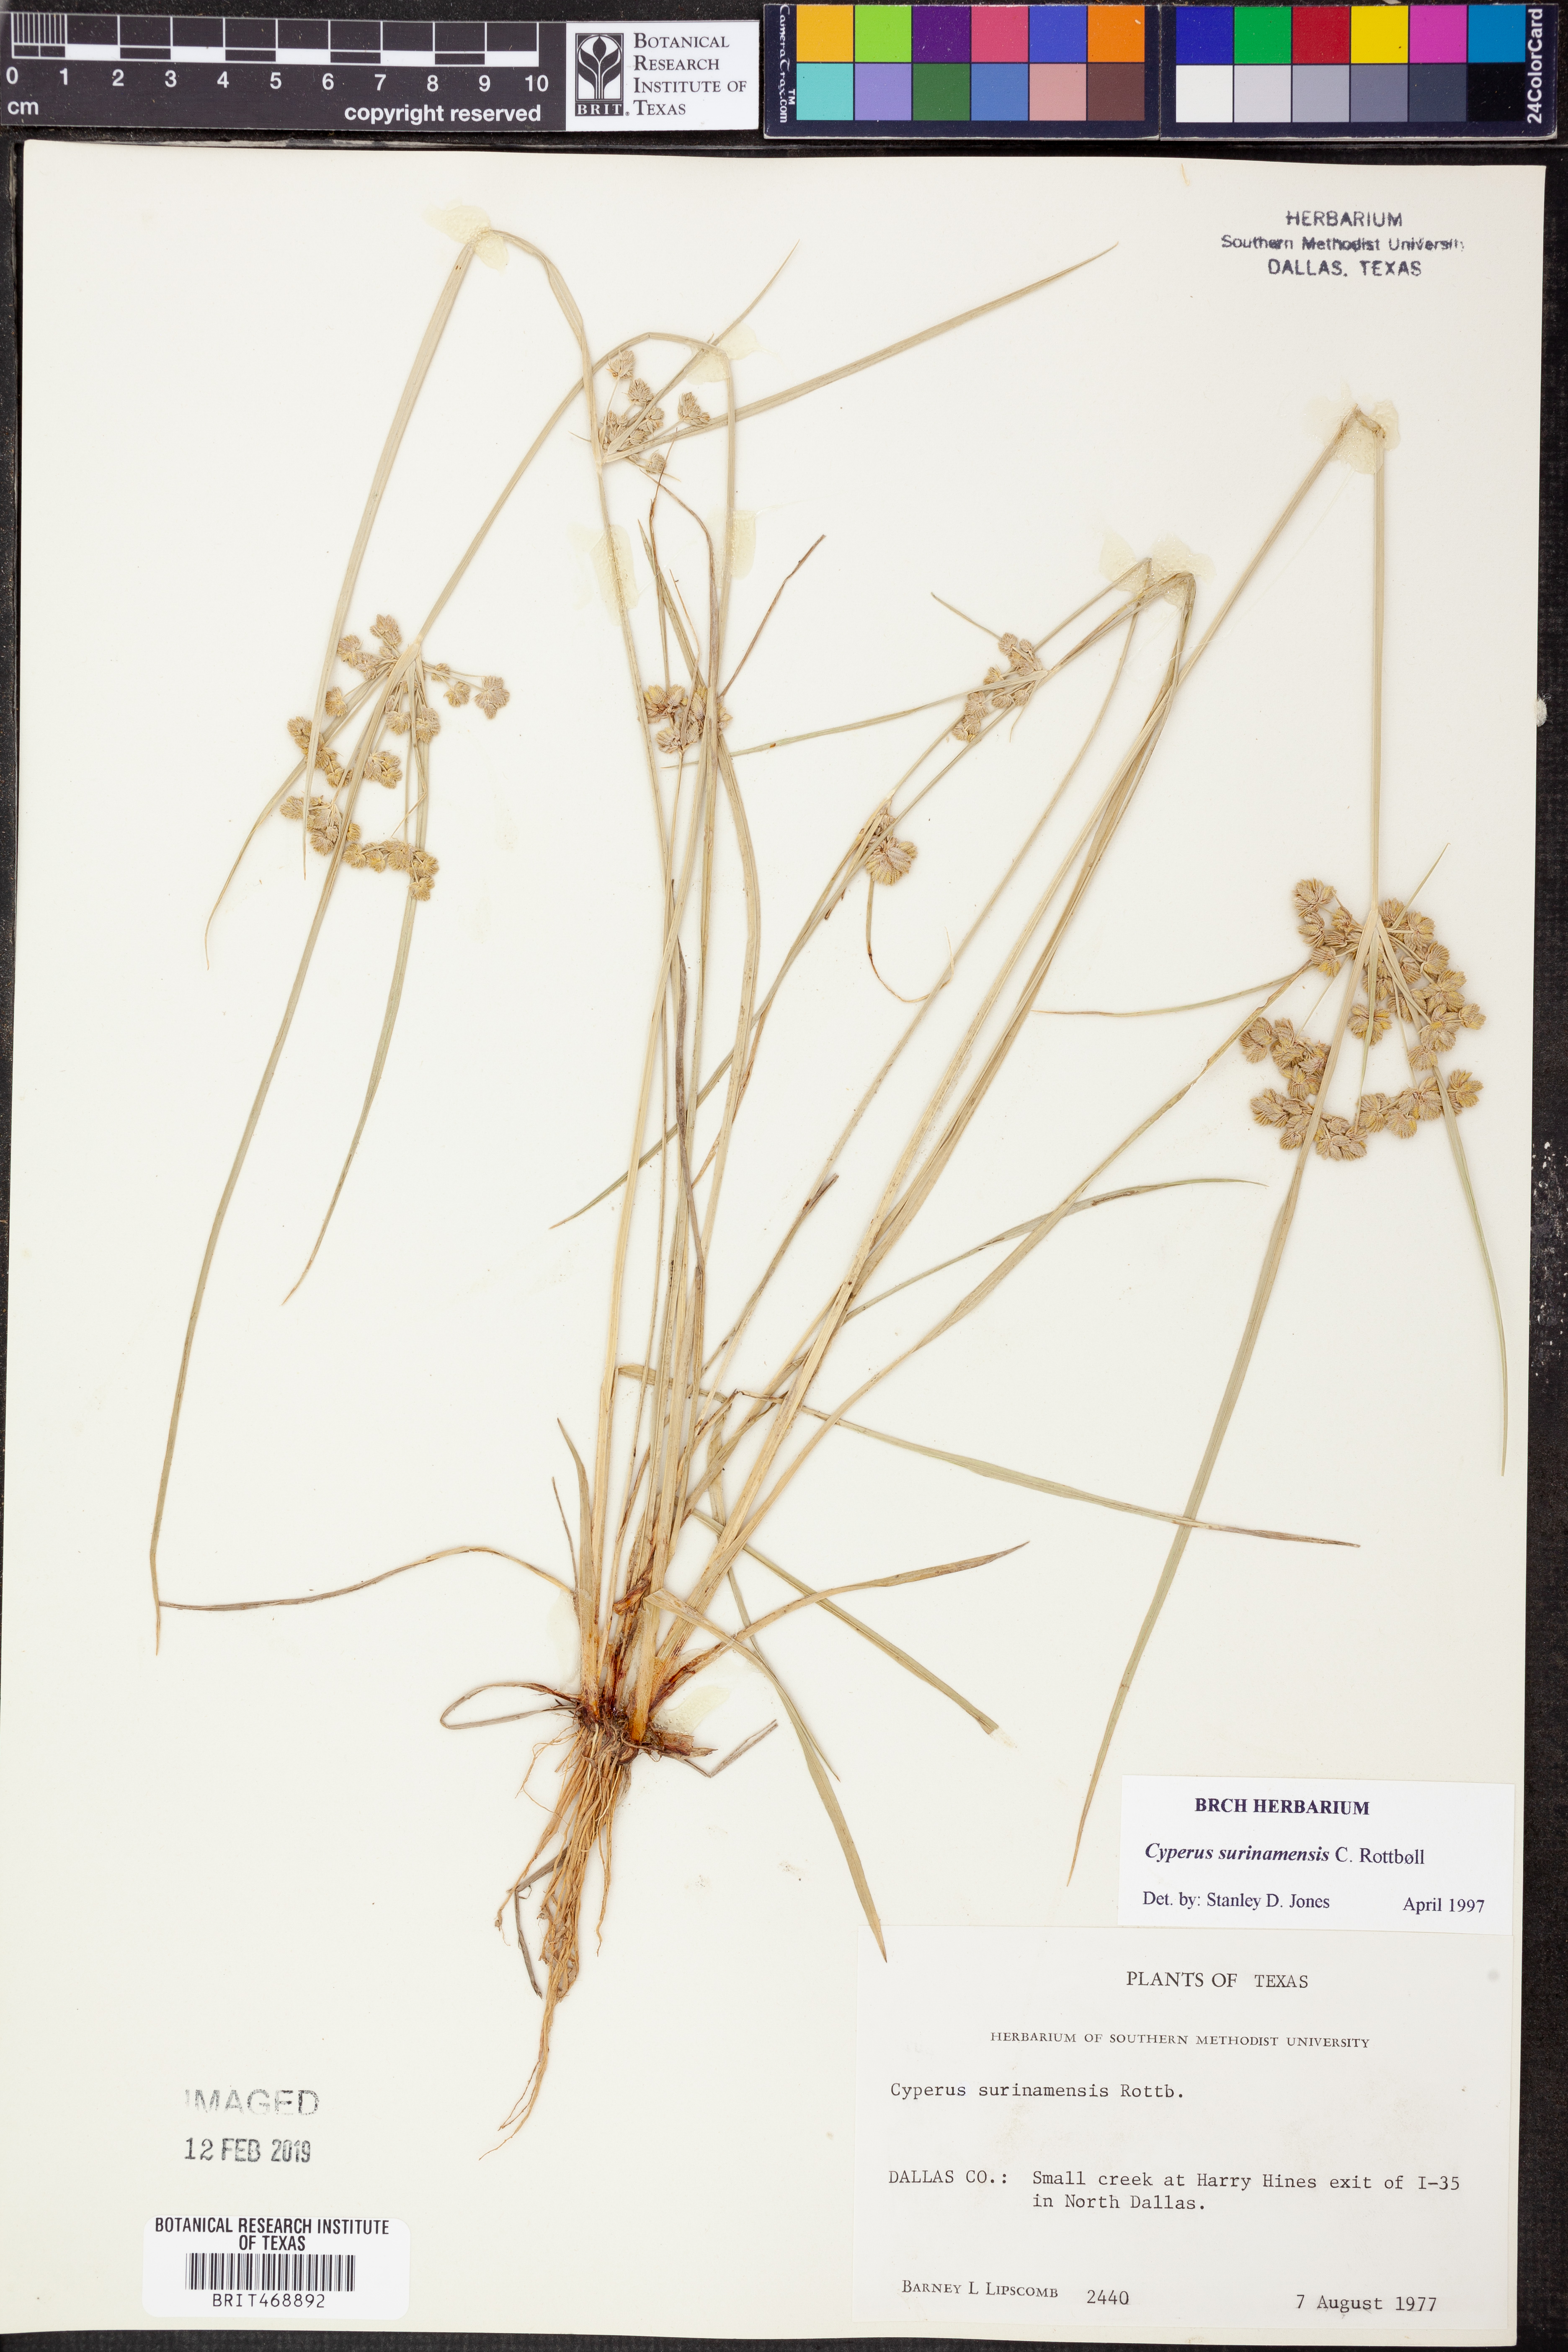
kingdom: Plantae
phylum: Tracheophyta
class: Liliopsida
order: Poales
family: Cyperaceae
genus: Cyperus
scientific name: Cyperus surinamensis
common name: Tropical flat sedge
